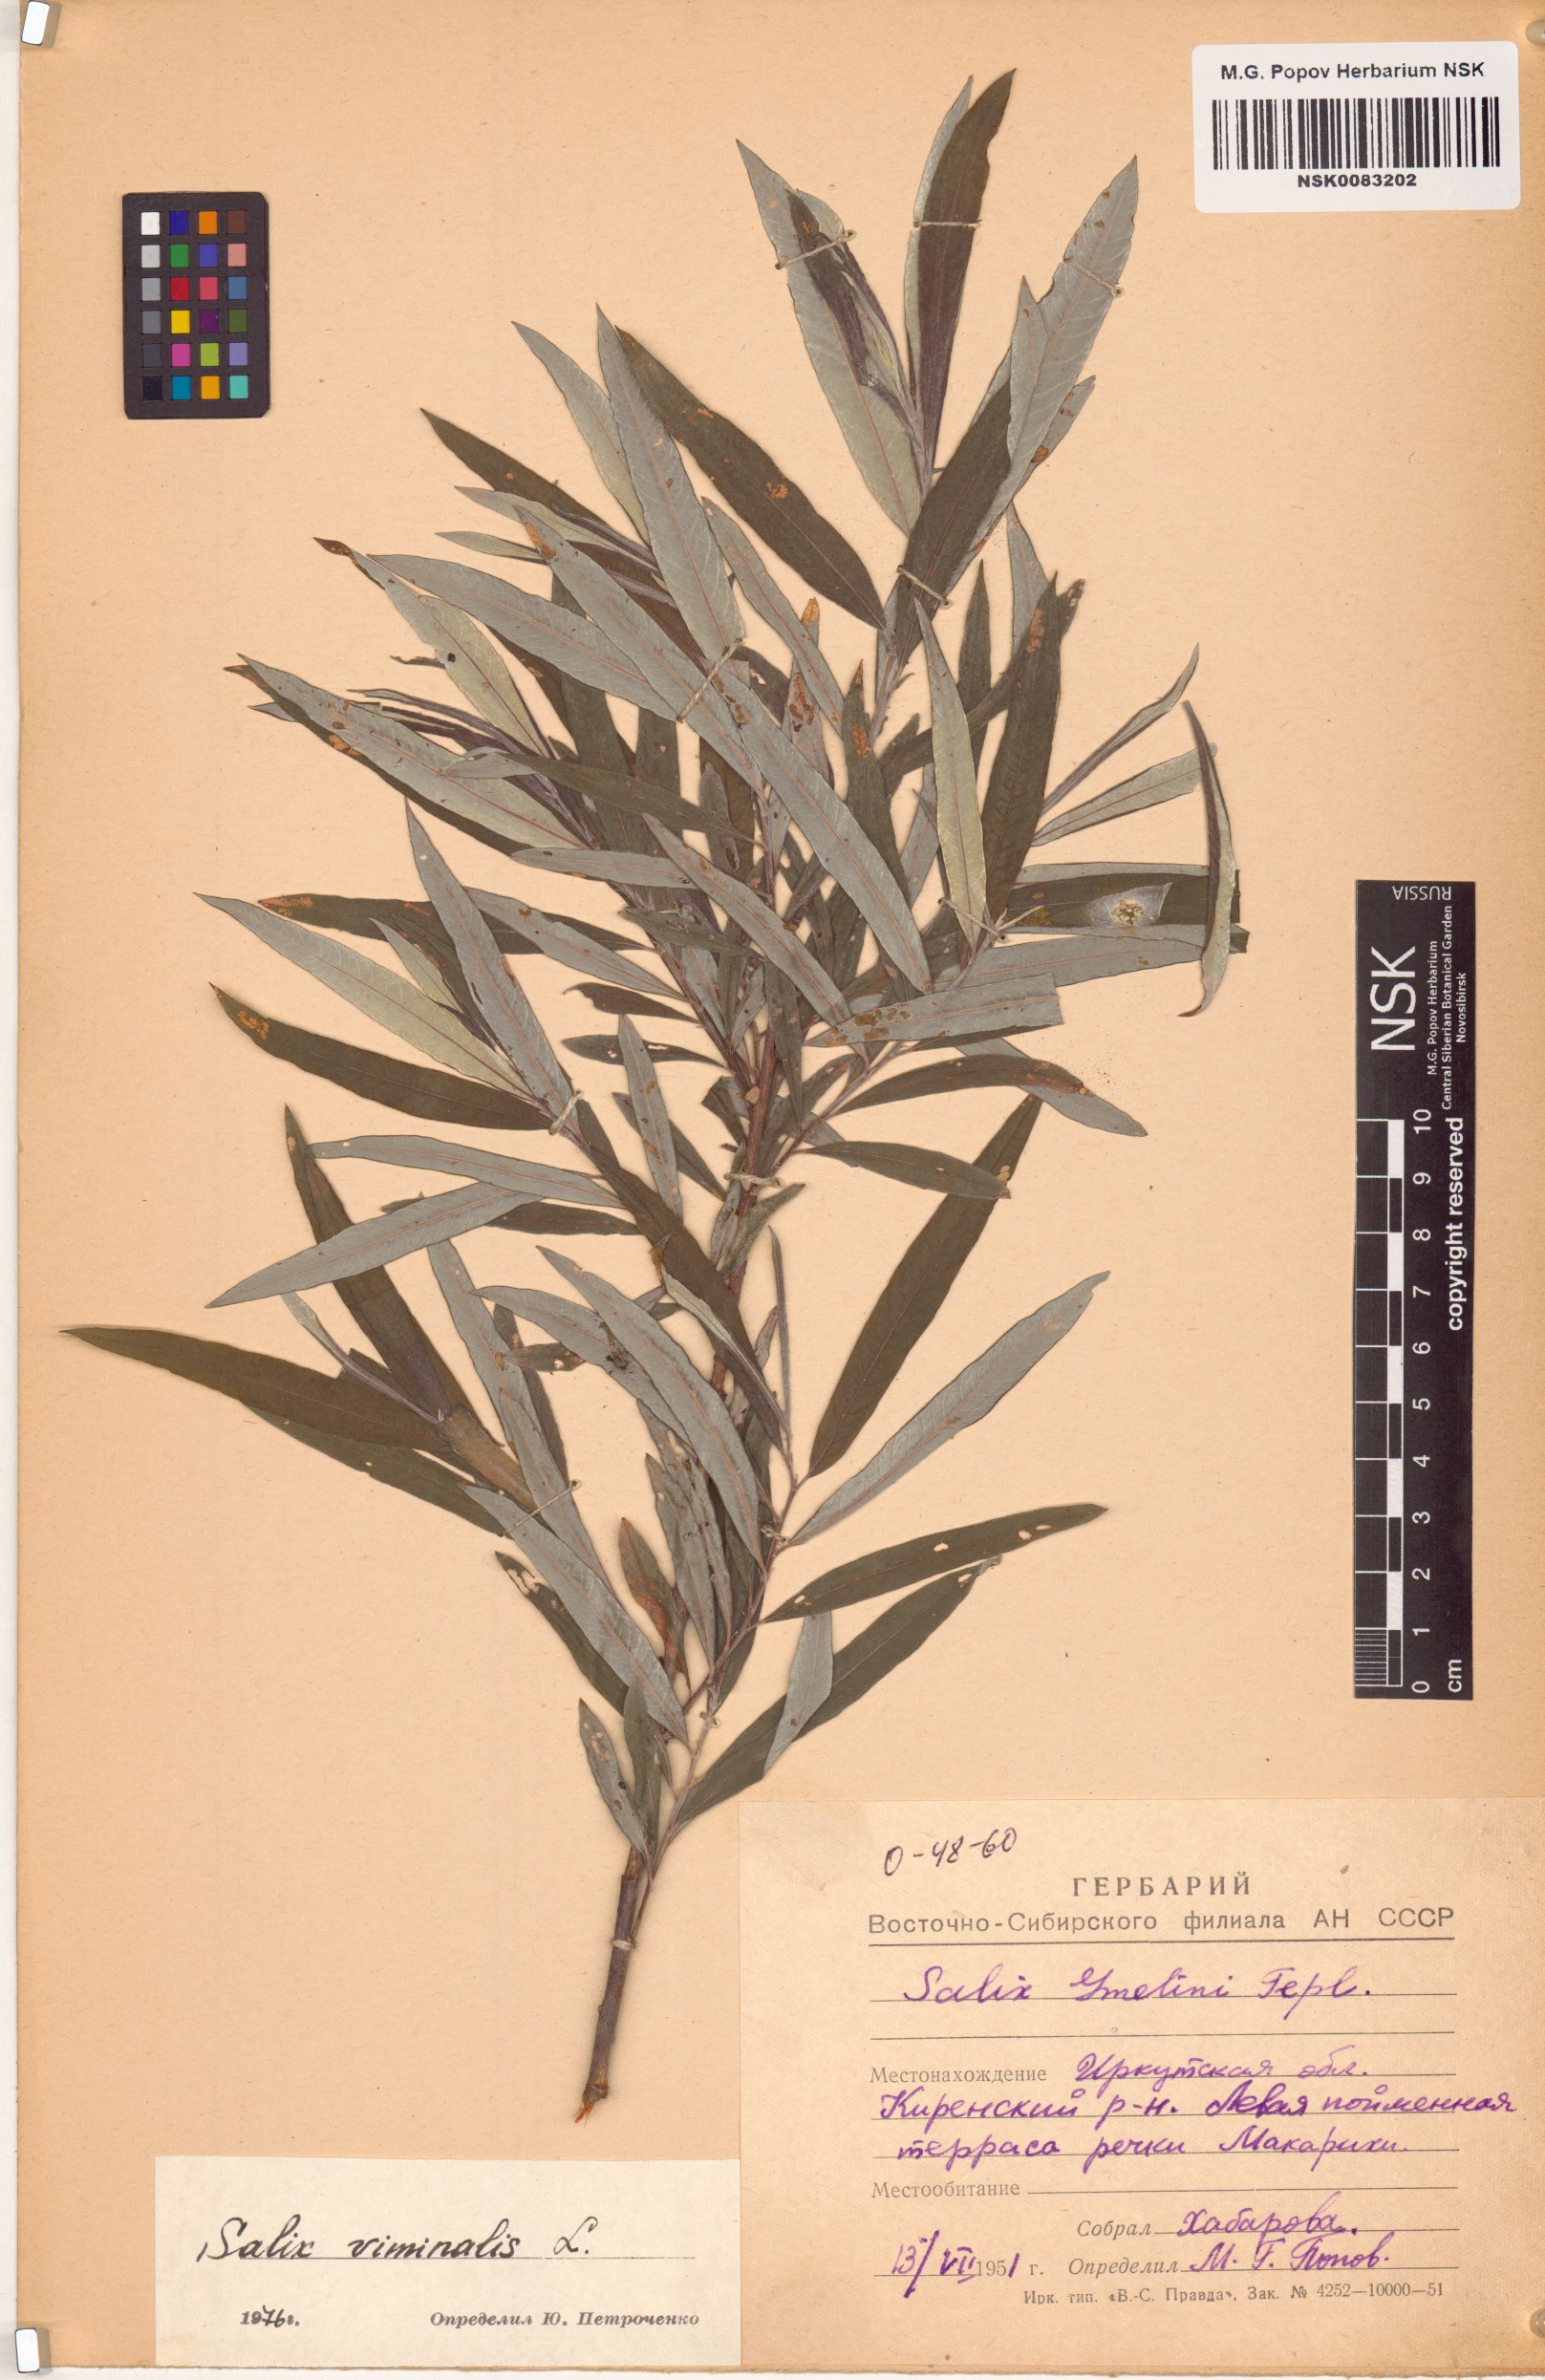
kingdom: Plantae
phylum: Tracheophyta
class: Magnoliopsida
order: Malpighiales
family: Salicaceae
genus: Salix
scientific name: Salix viminalis
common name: Osier
